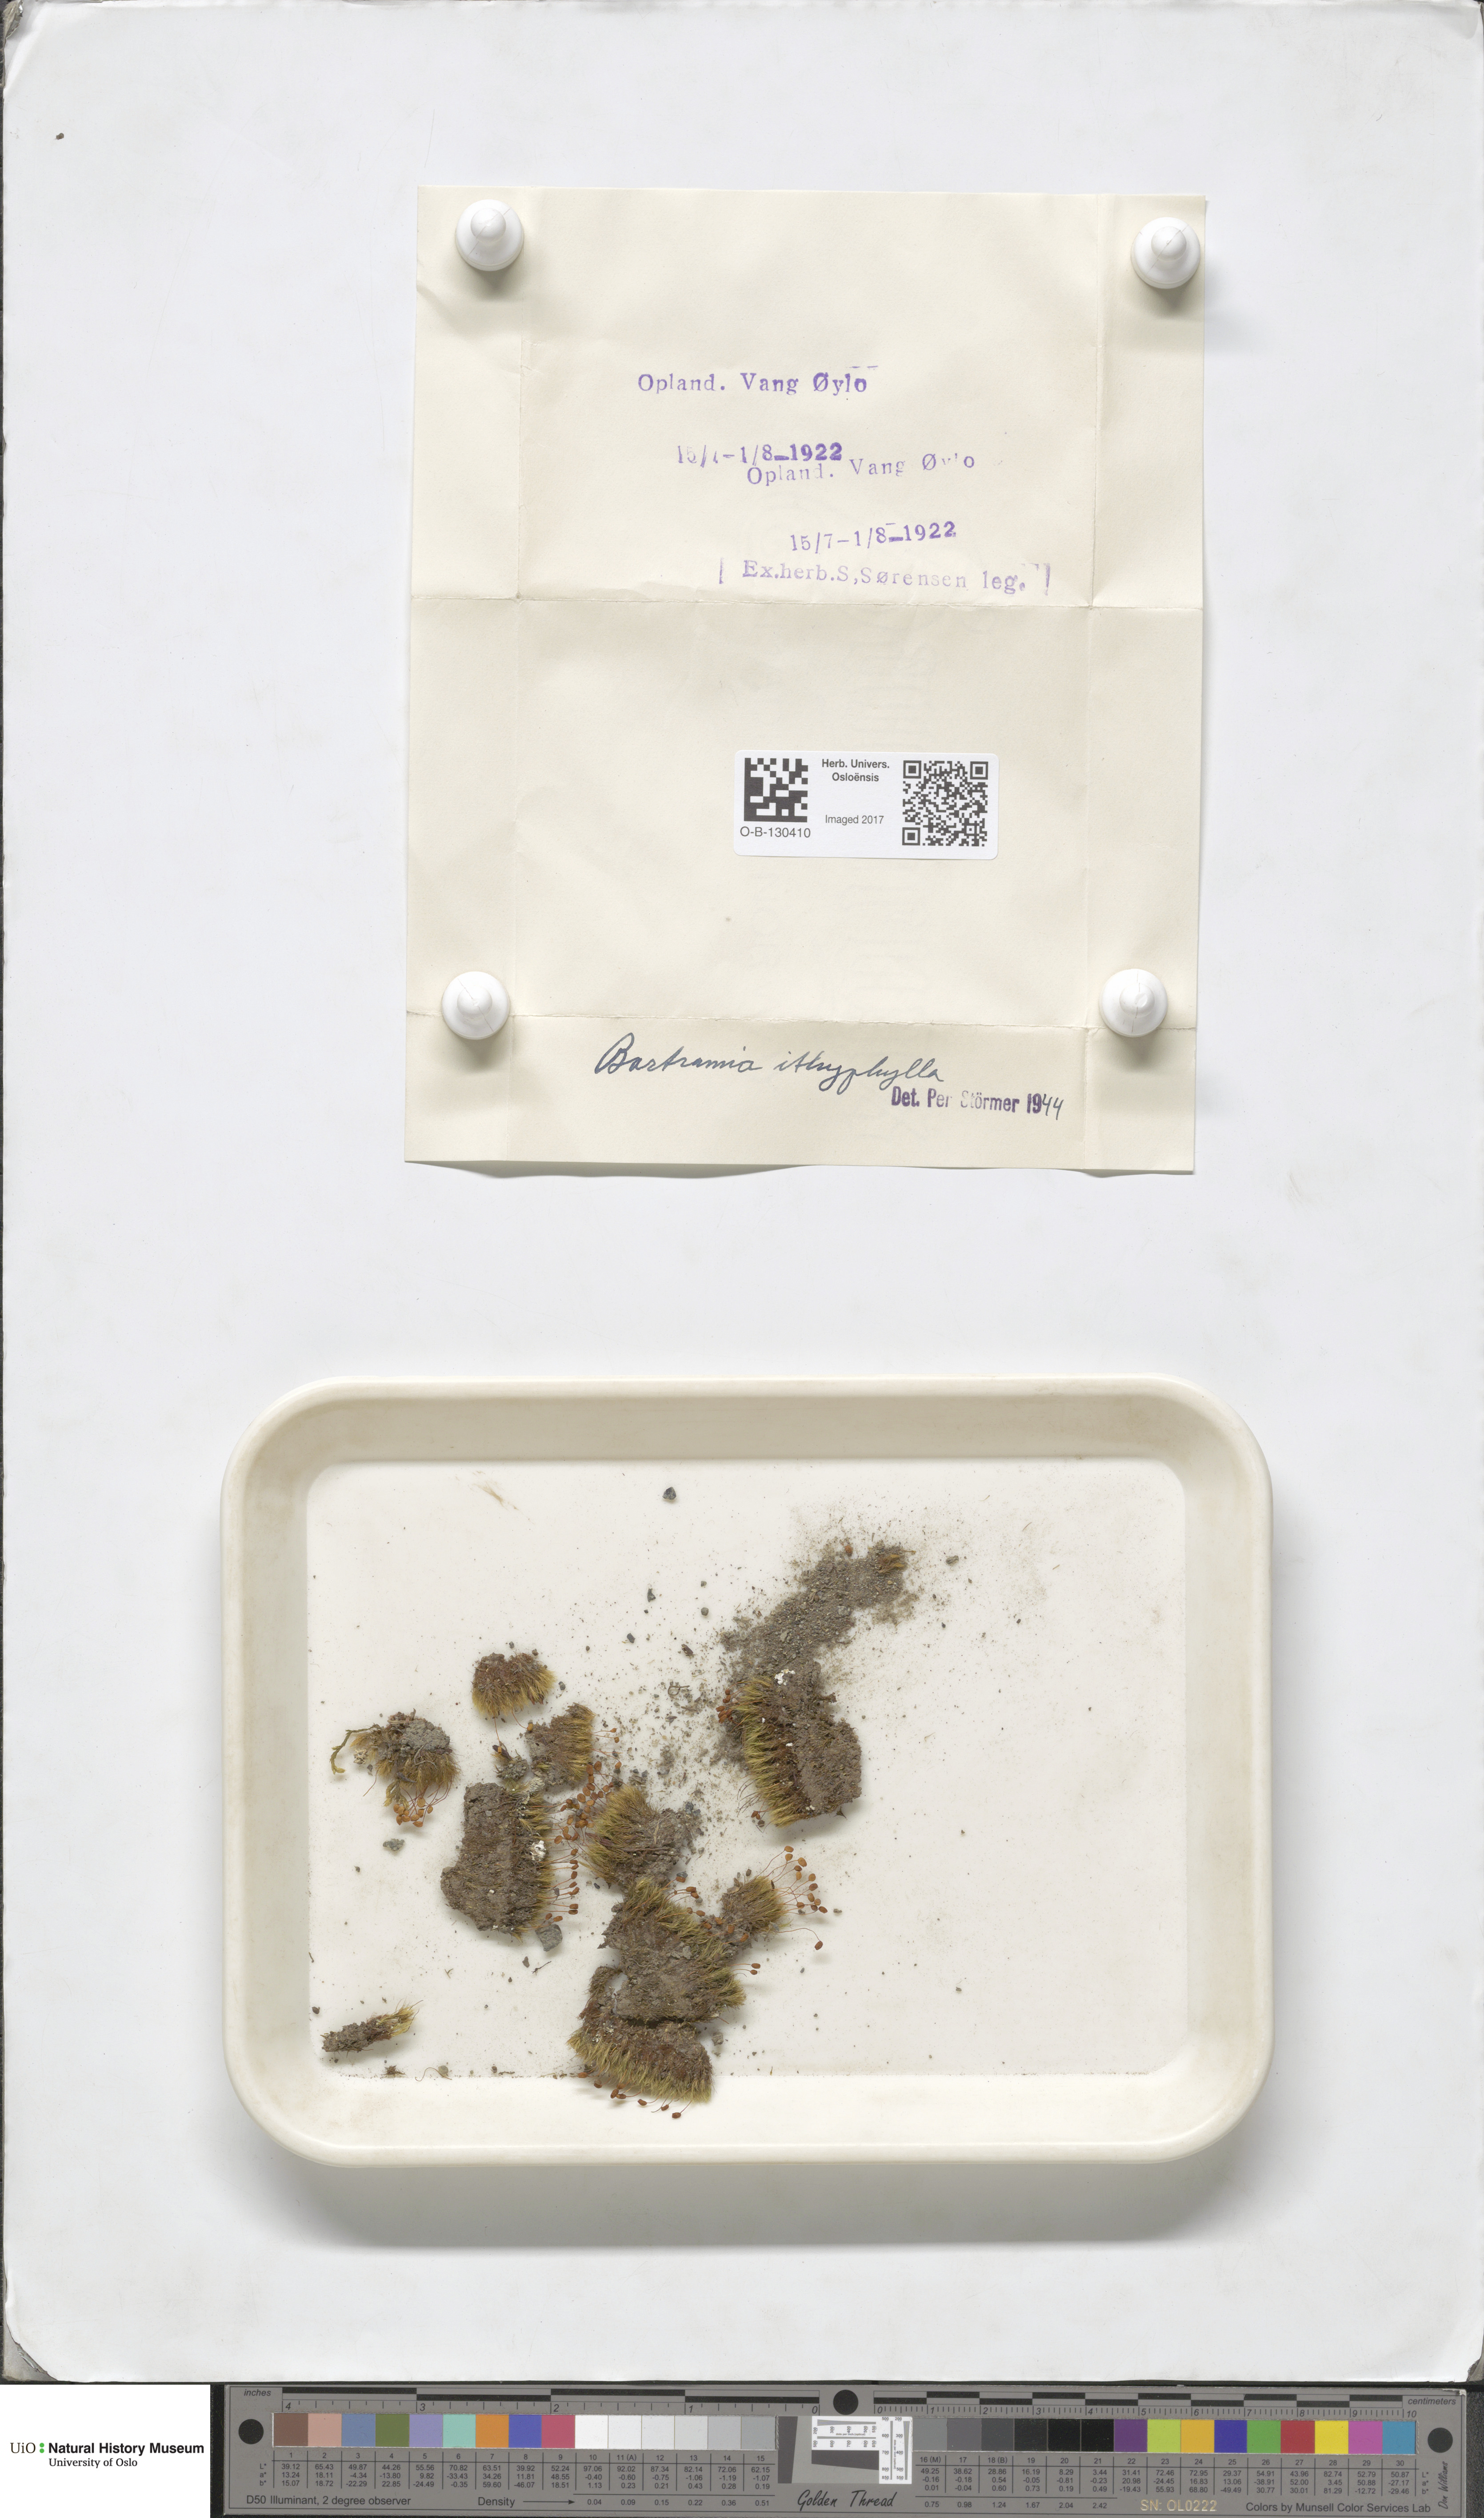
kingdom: Plantae
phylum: Bryophyta
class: Bryopsida
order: Bartramiales
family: Bartramiaceae
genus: Bartramia
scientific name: Bartramia ithyphylla
